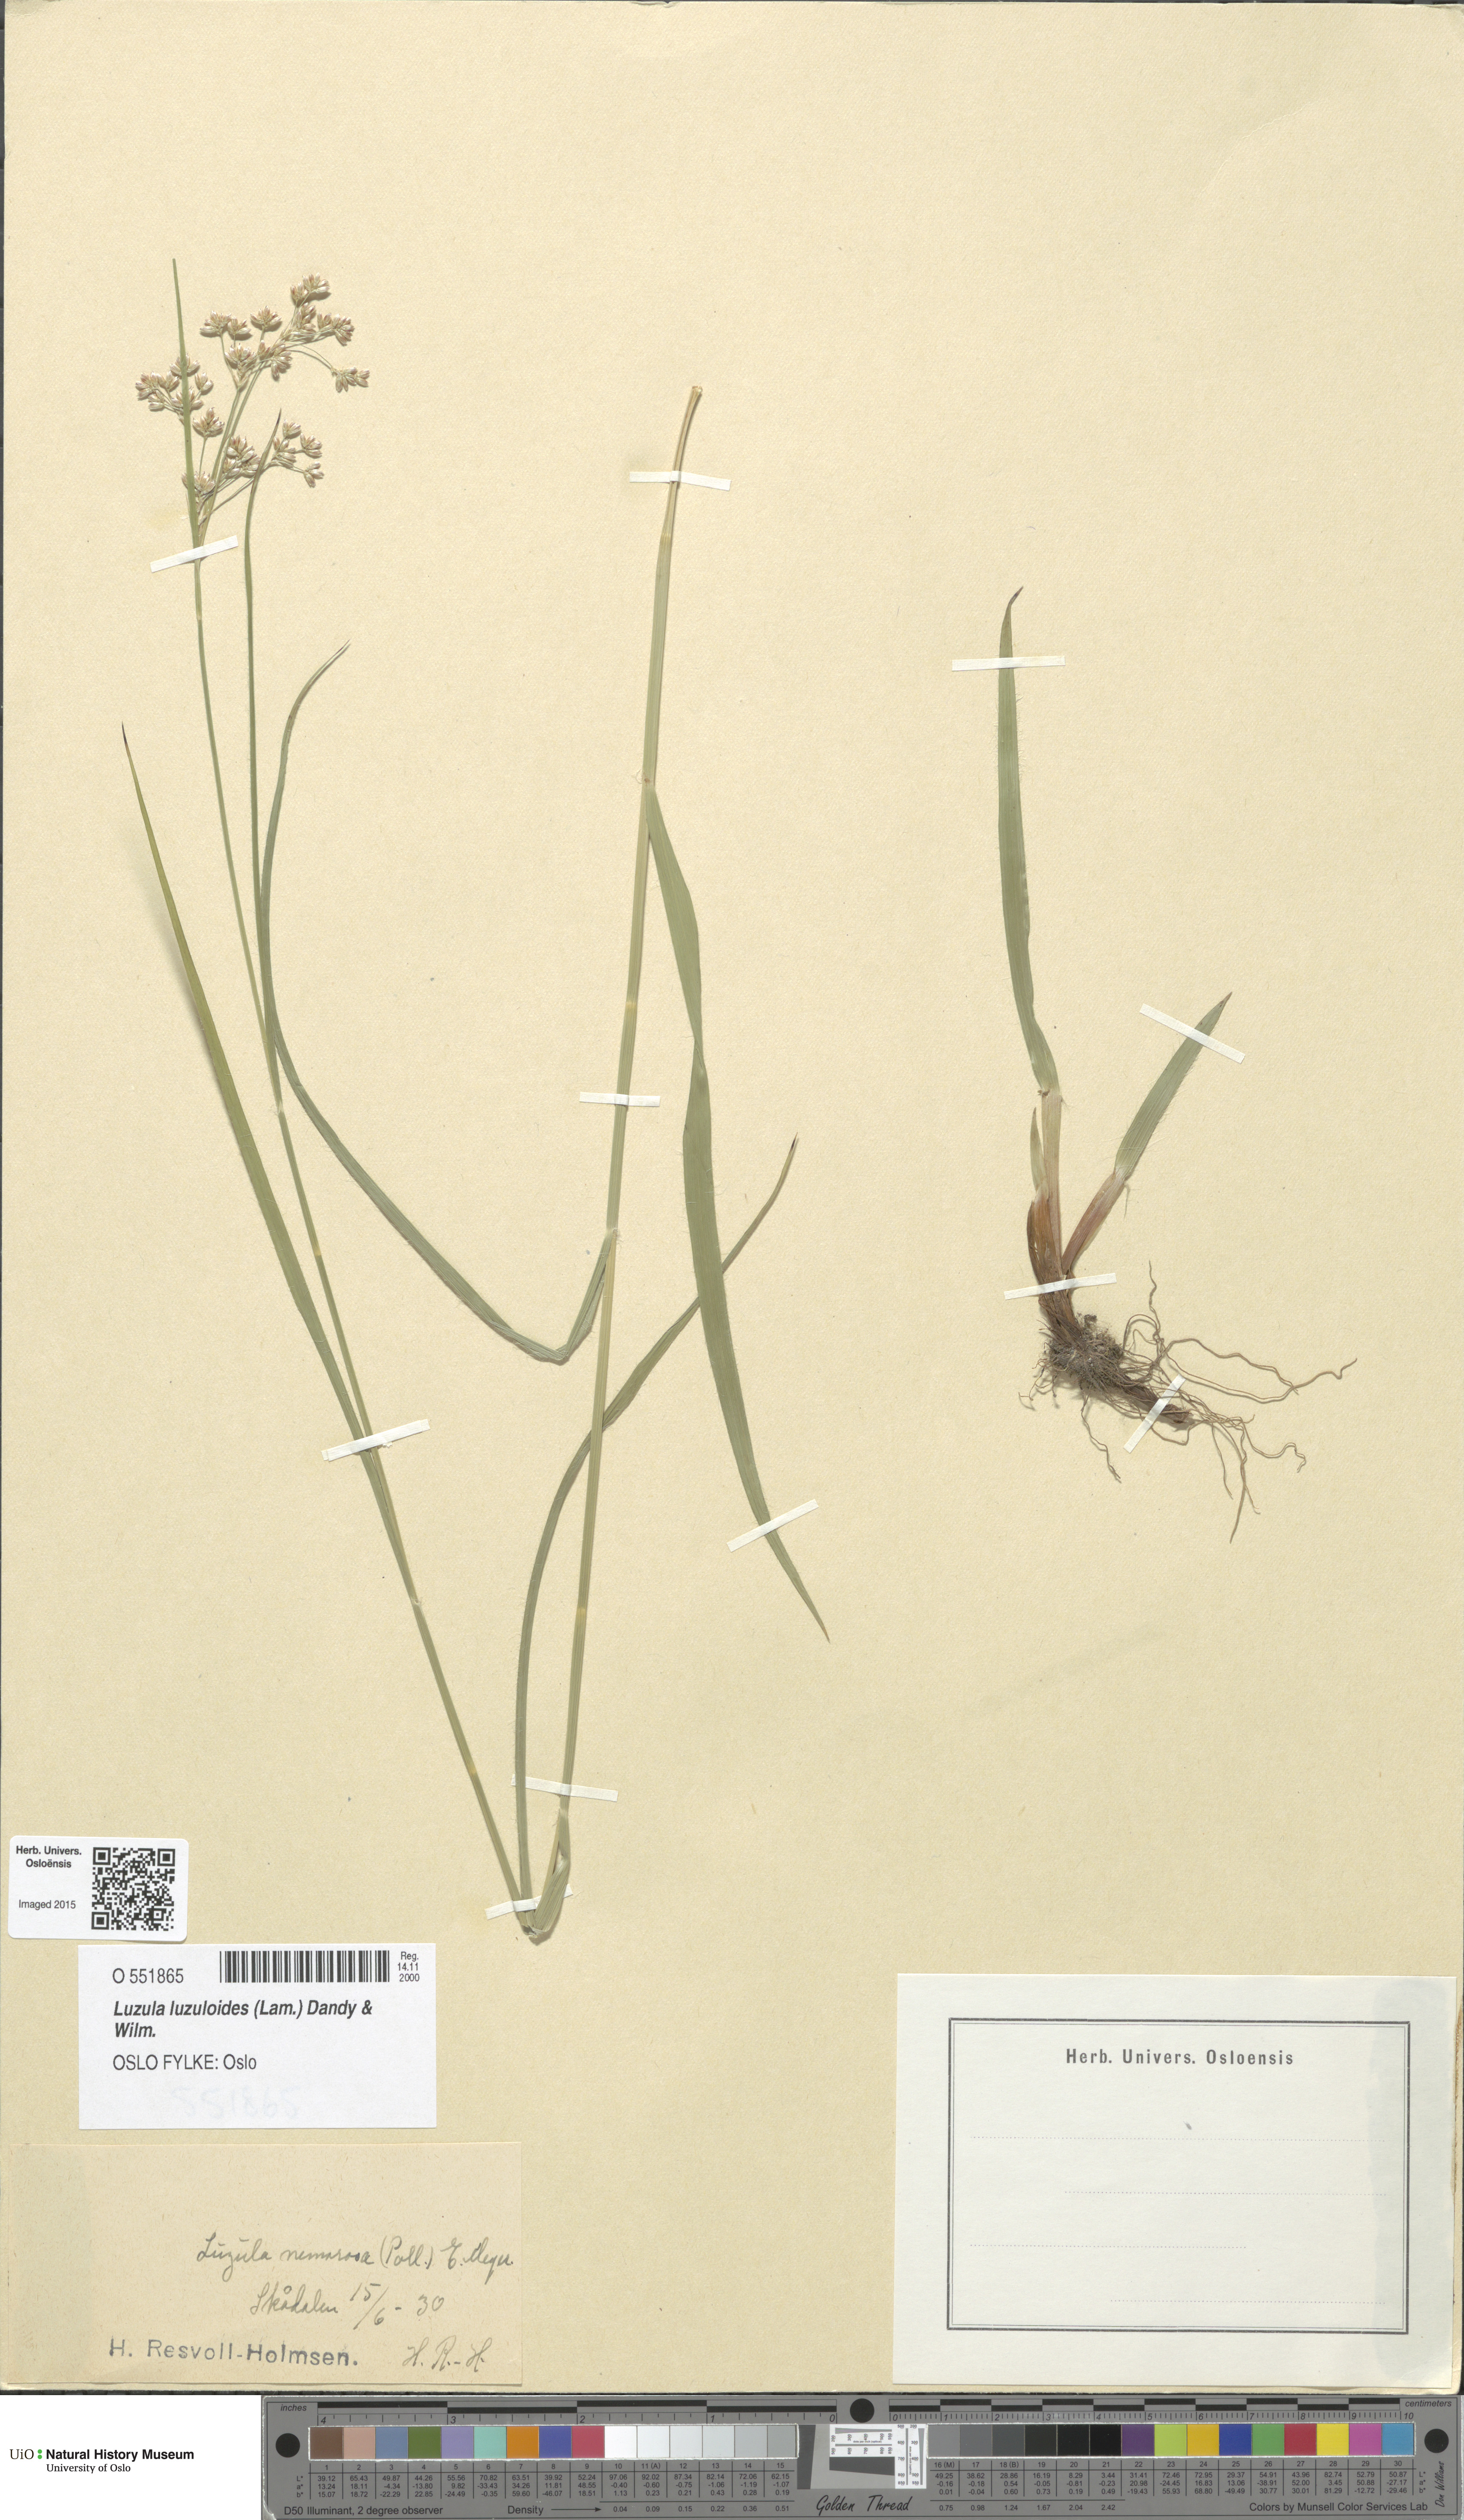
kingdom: Plantae
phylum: Tracheophyta
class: Liliopsida
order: Poales
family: Juncaceae
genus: Luzula
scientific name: Luzula luzuloides
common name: White wood-rush
